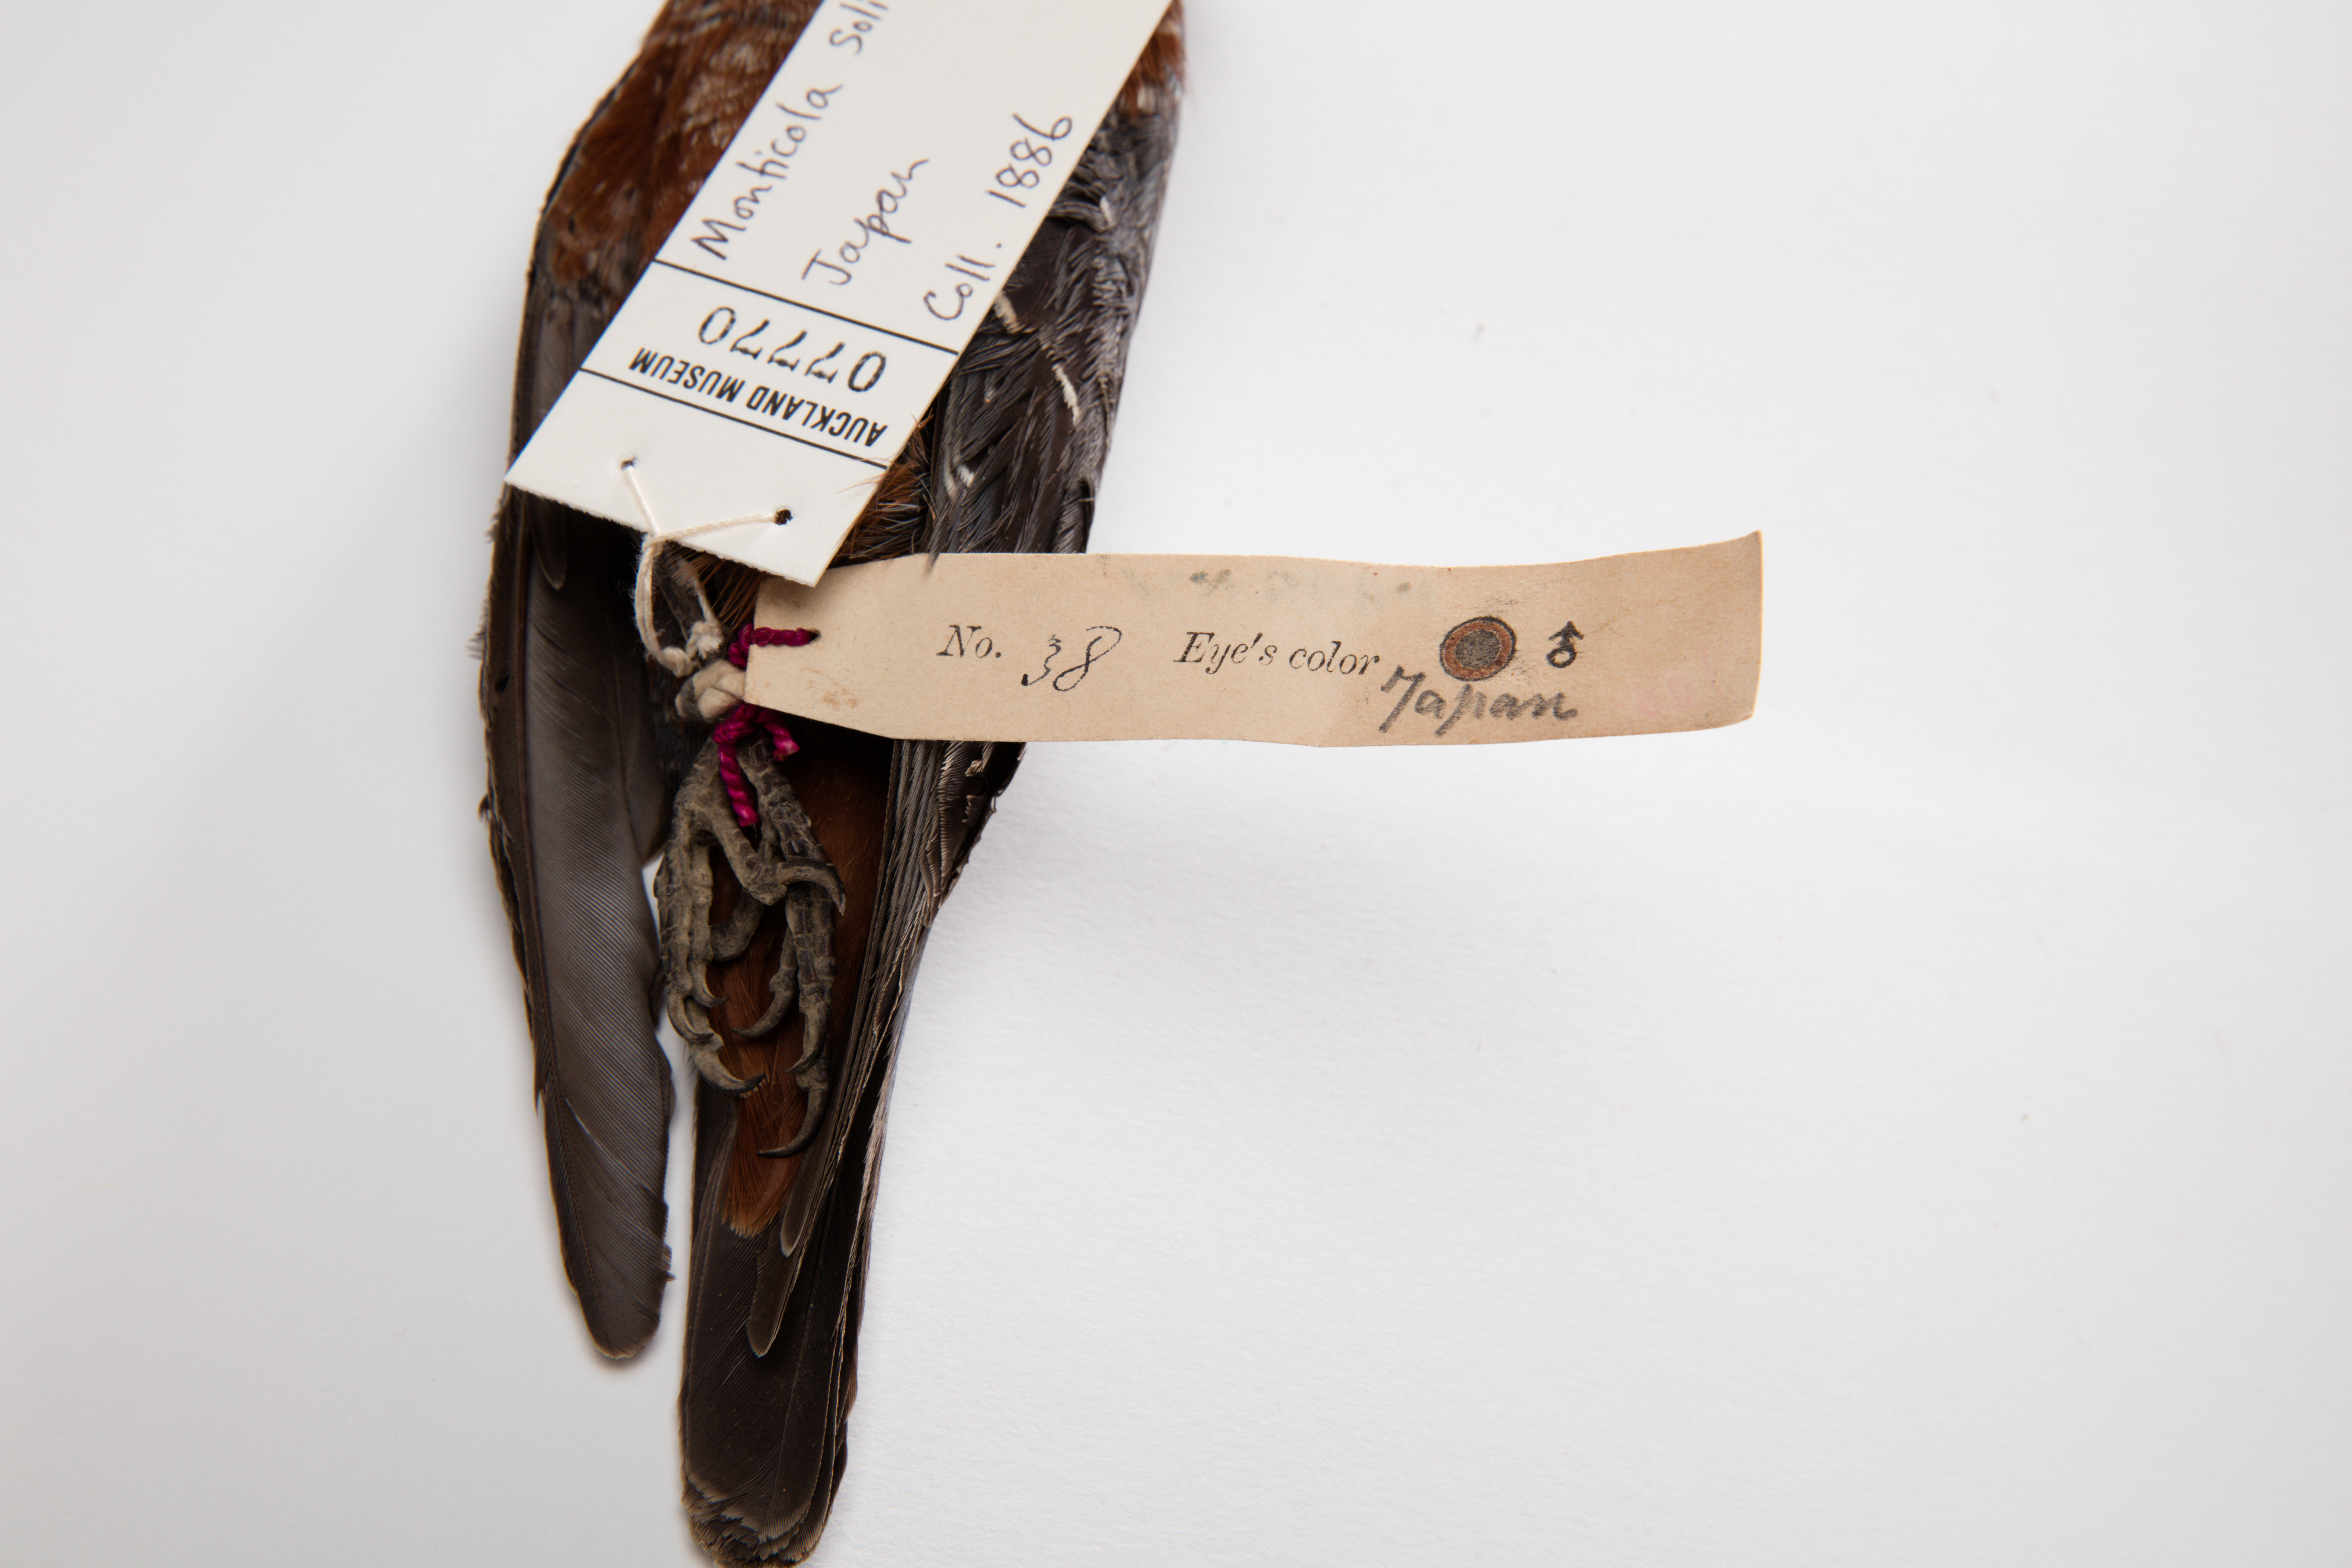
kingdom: Animalia
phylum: Chordata
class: Aves
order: Passeriformes
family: Muscicapidae
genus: Monticola
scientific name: Monticola solitarius
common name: Blue rock thrush
